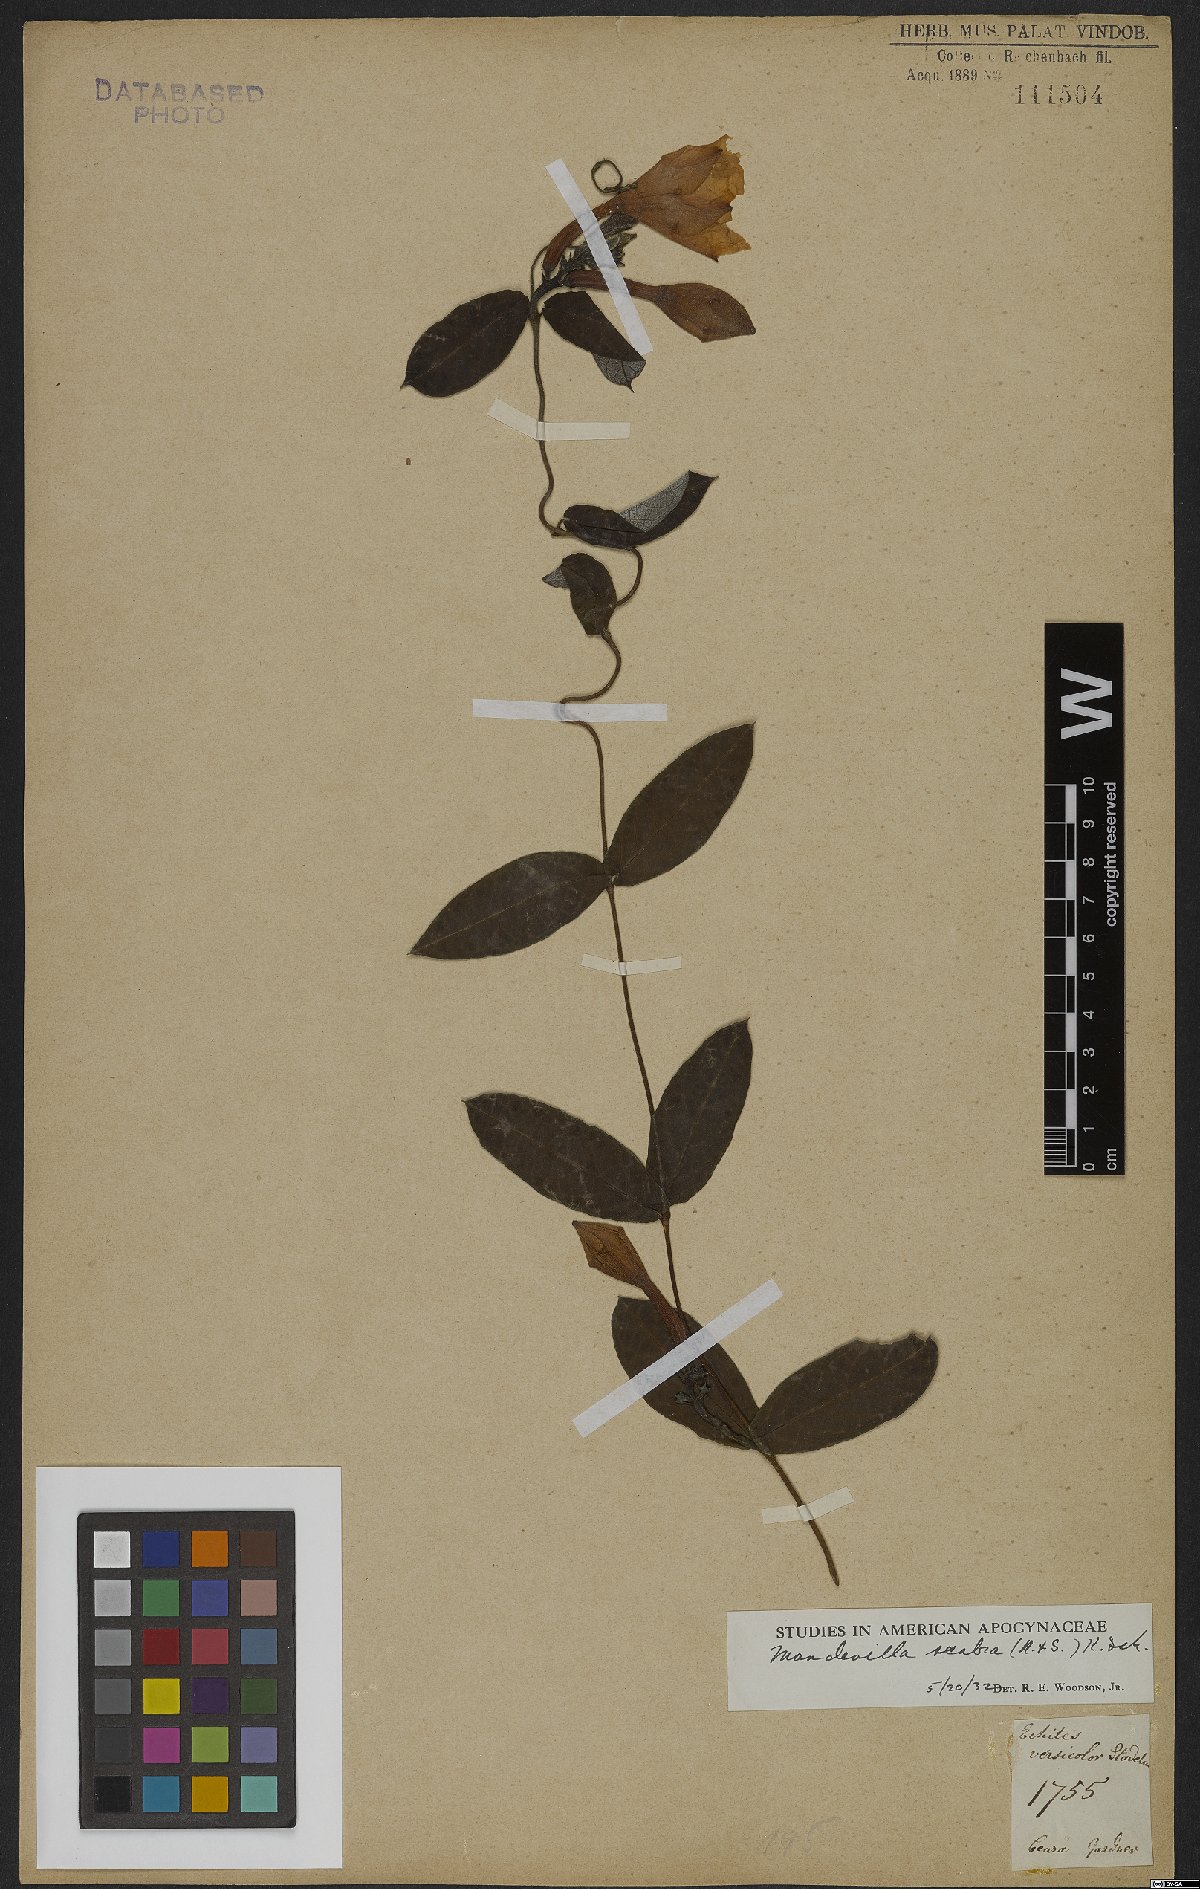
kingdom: Plantae
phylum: Tracheophyta
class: Magnoliopsida
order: Gentianales
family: Apocynaceae
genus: Mandevilla
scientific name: Mandevilla scabra
